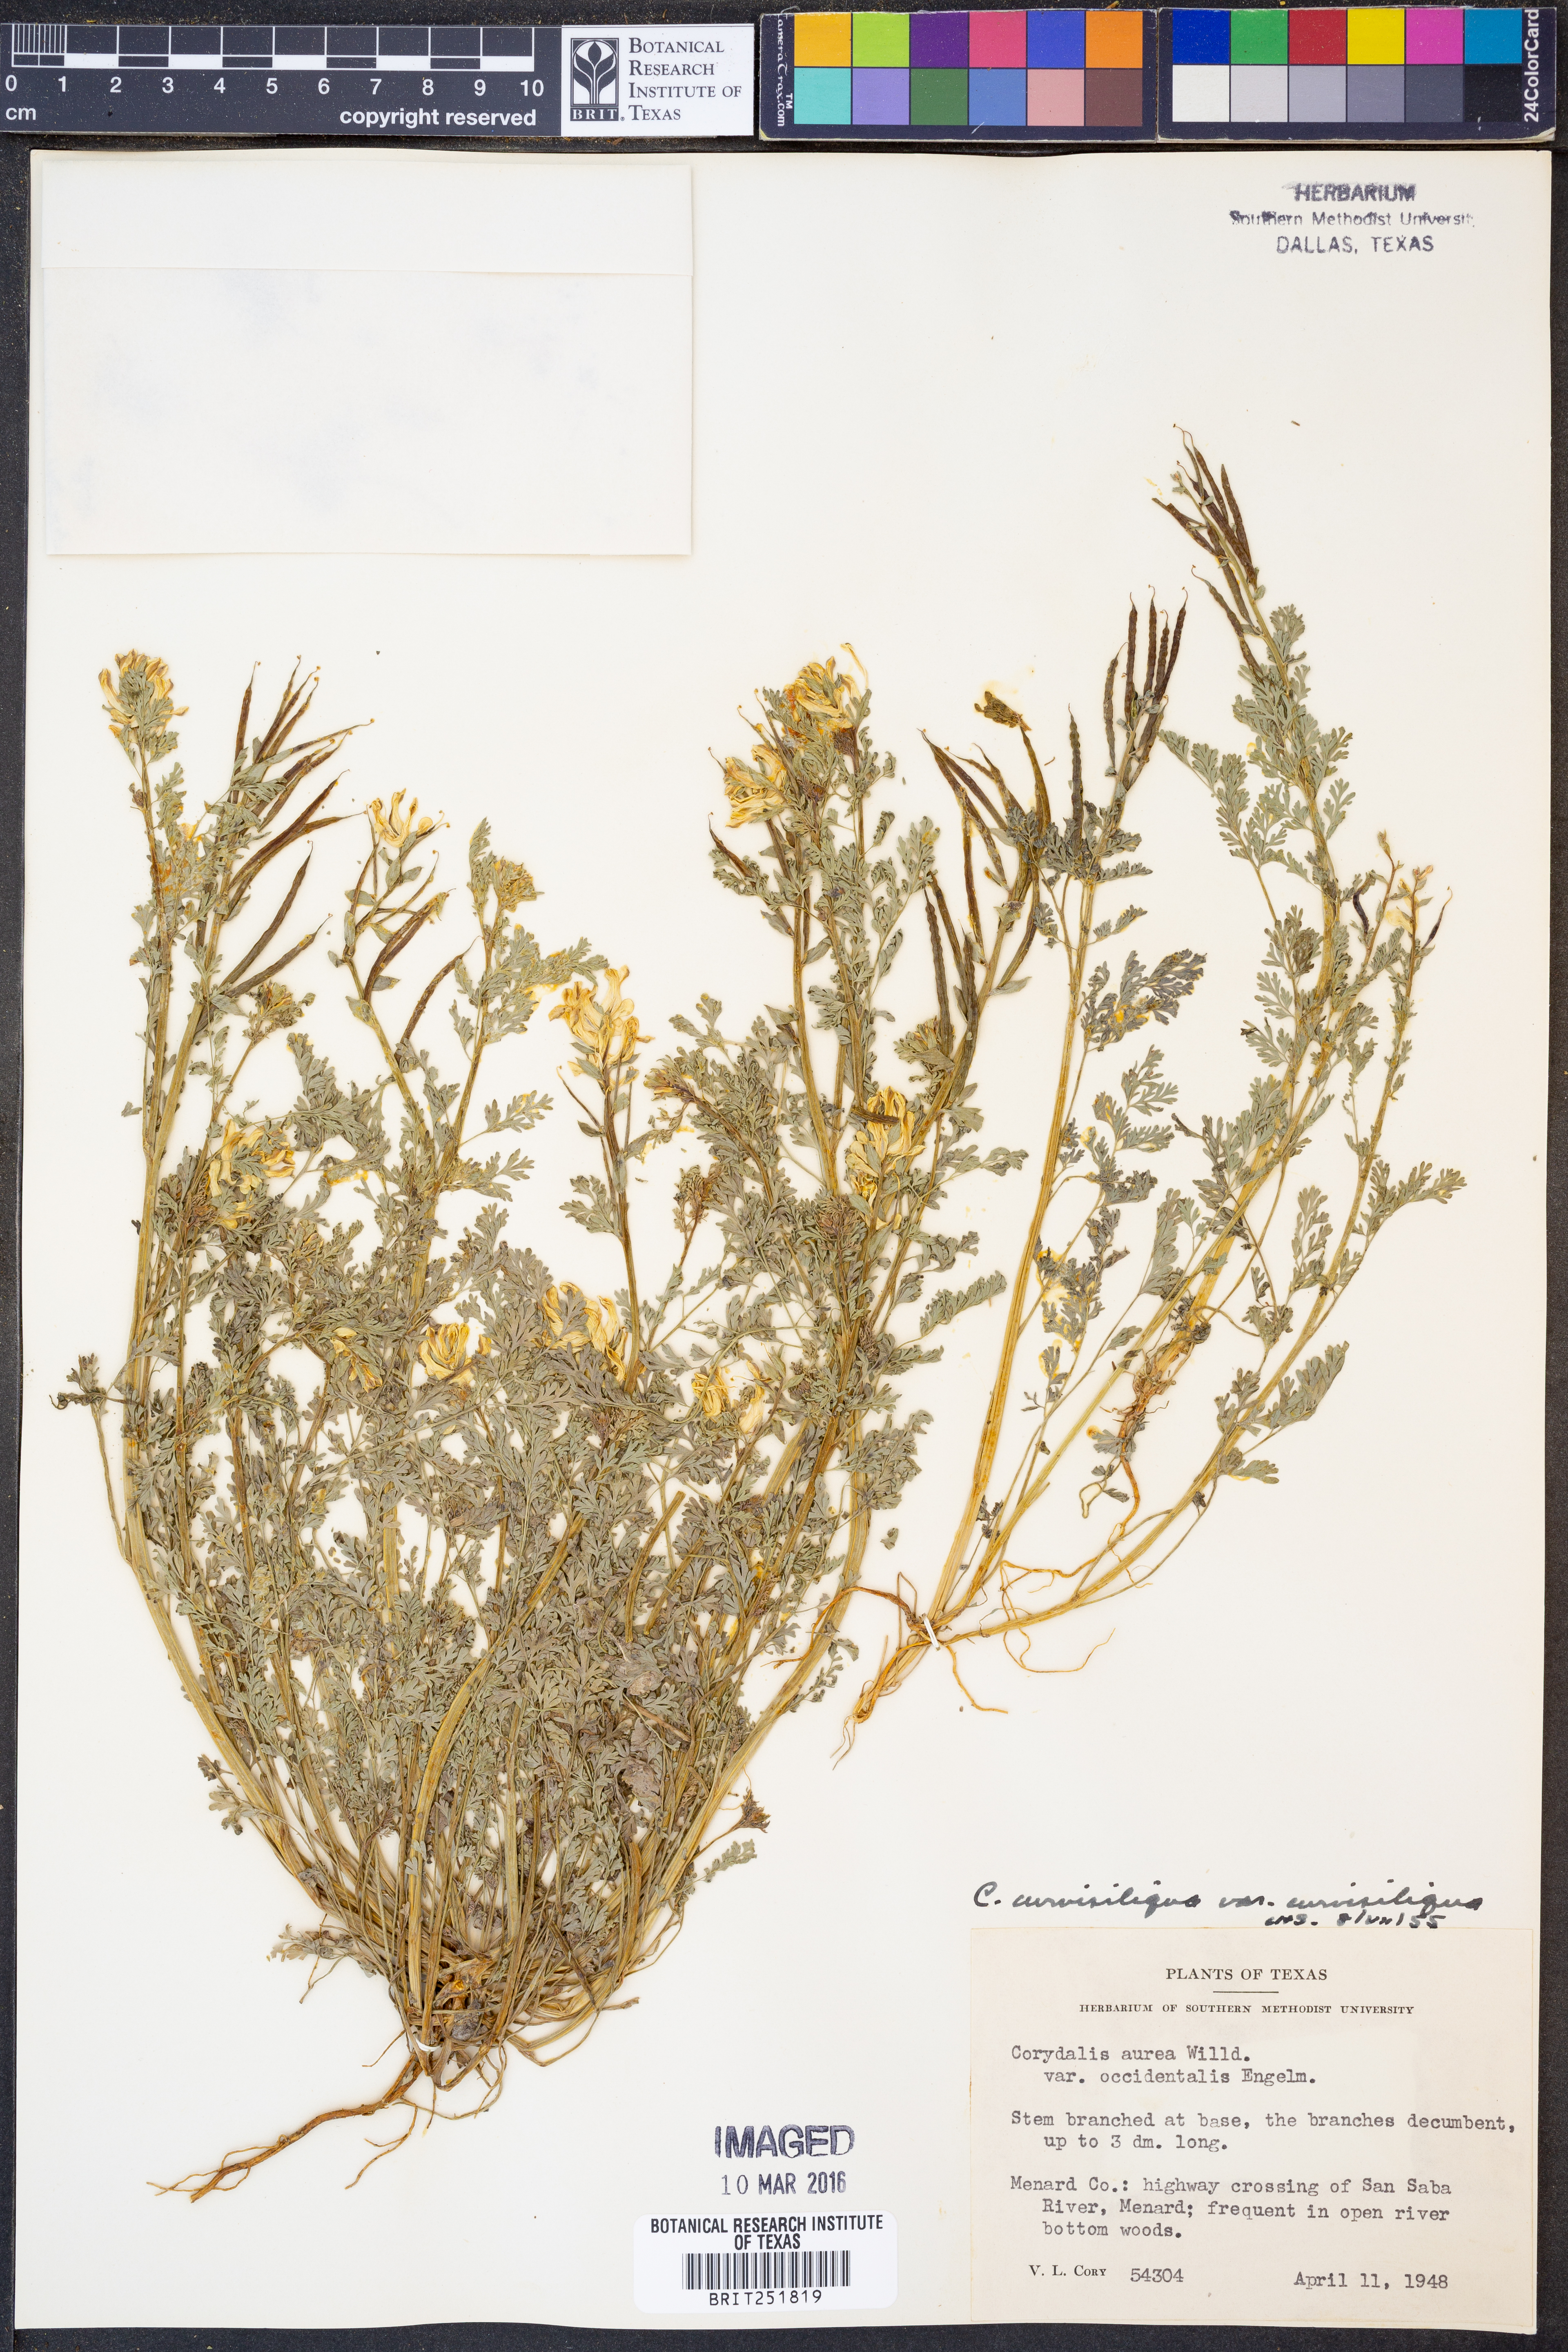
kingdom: Plantae
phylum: Tracheophyta
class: Magnoliopsida
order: Ranunculales
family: Papaveraceae
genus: Corydalis
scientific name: Corydalis curvisiliqua
